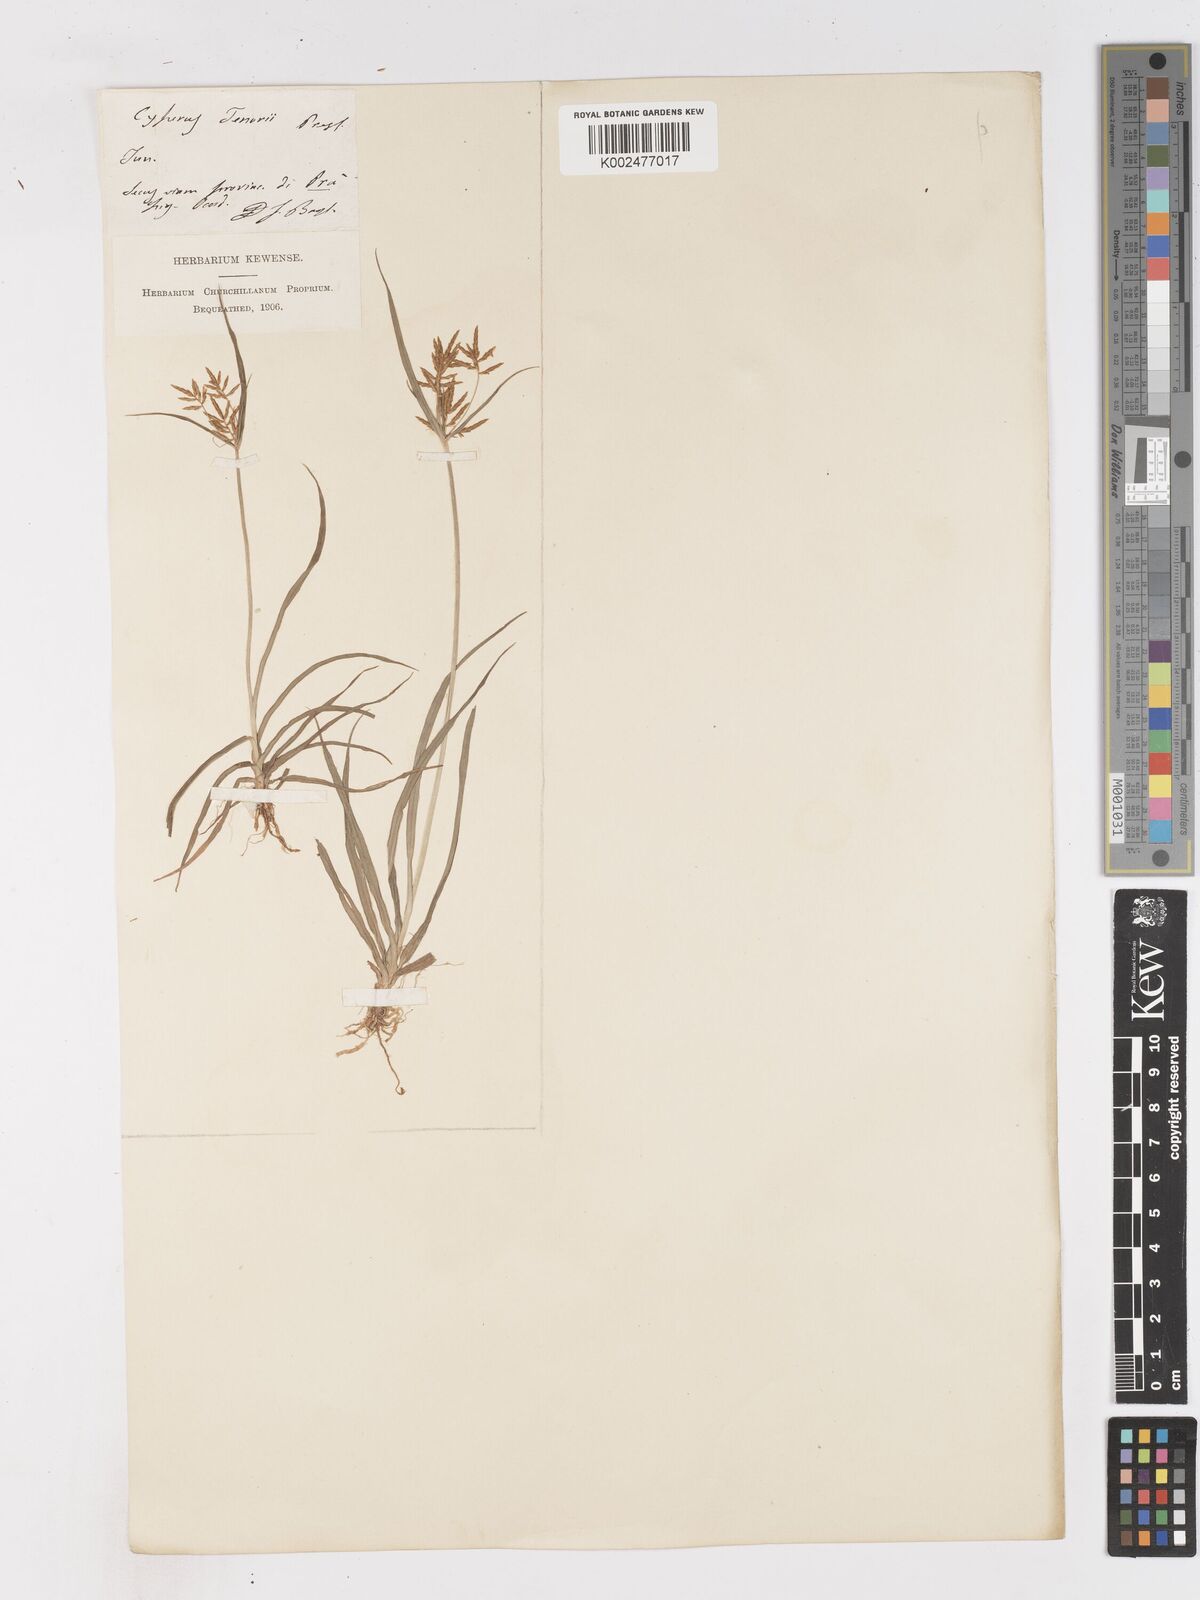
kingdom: Plantae
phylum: Tracheophyta
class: Liliopsida
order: Poales
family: Cyperaceae
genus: Cyperus
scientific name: Cyperus esculentus
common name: Yellow nutsedge
